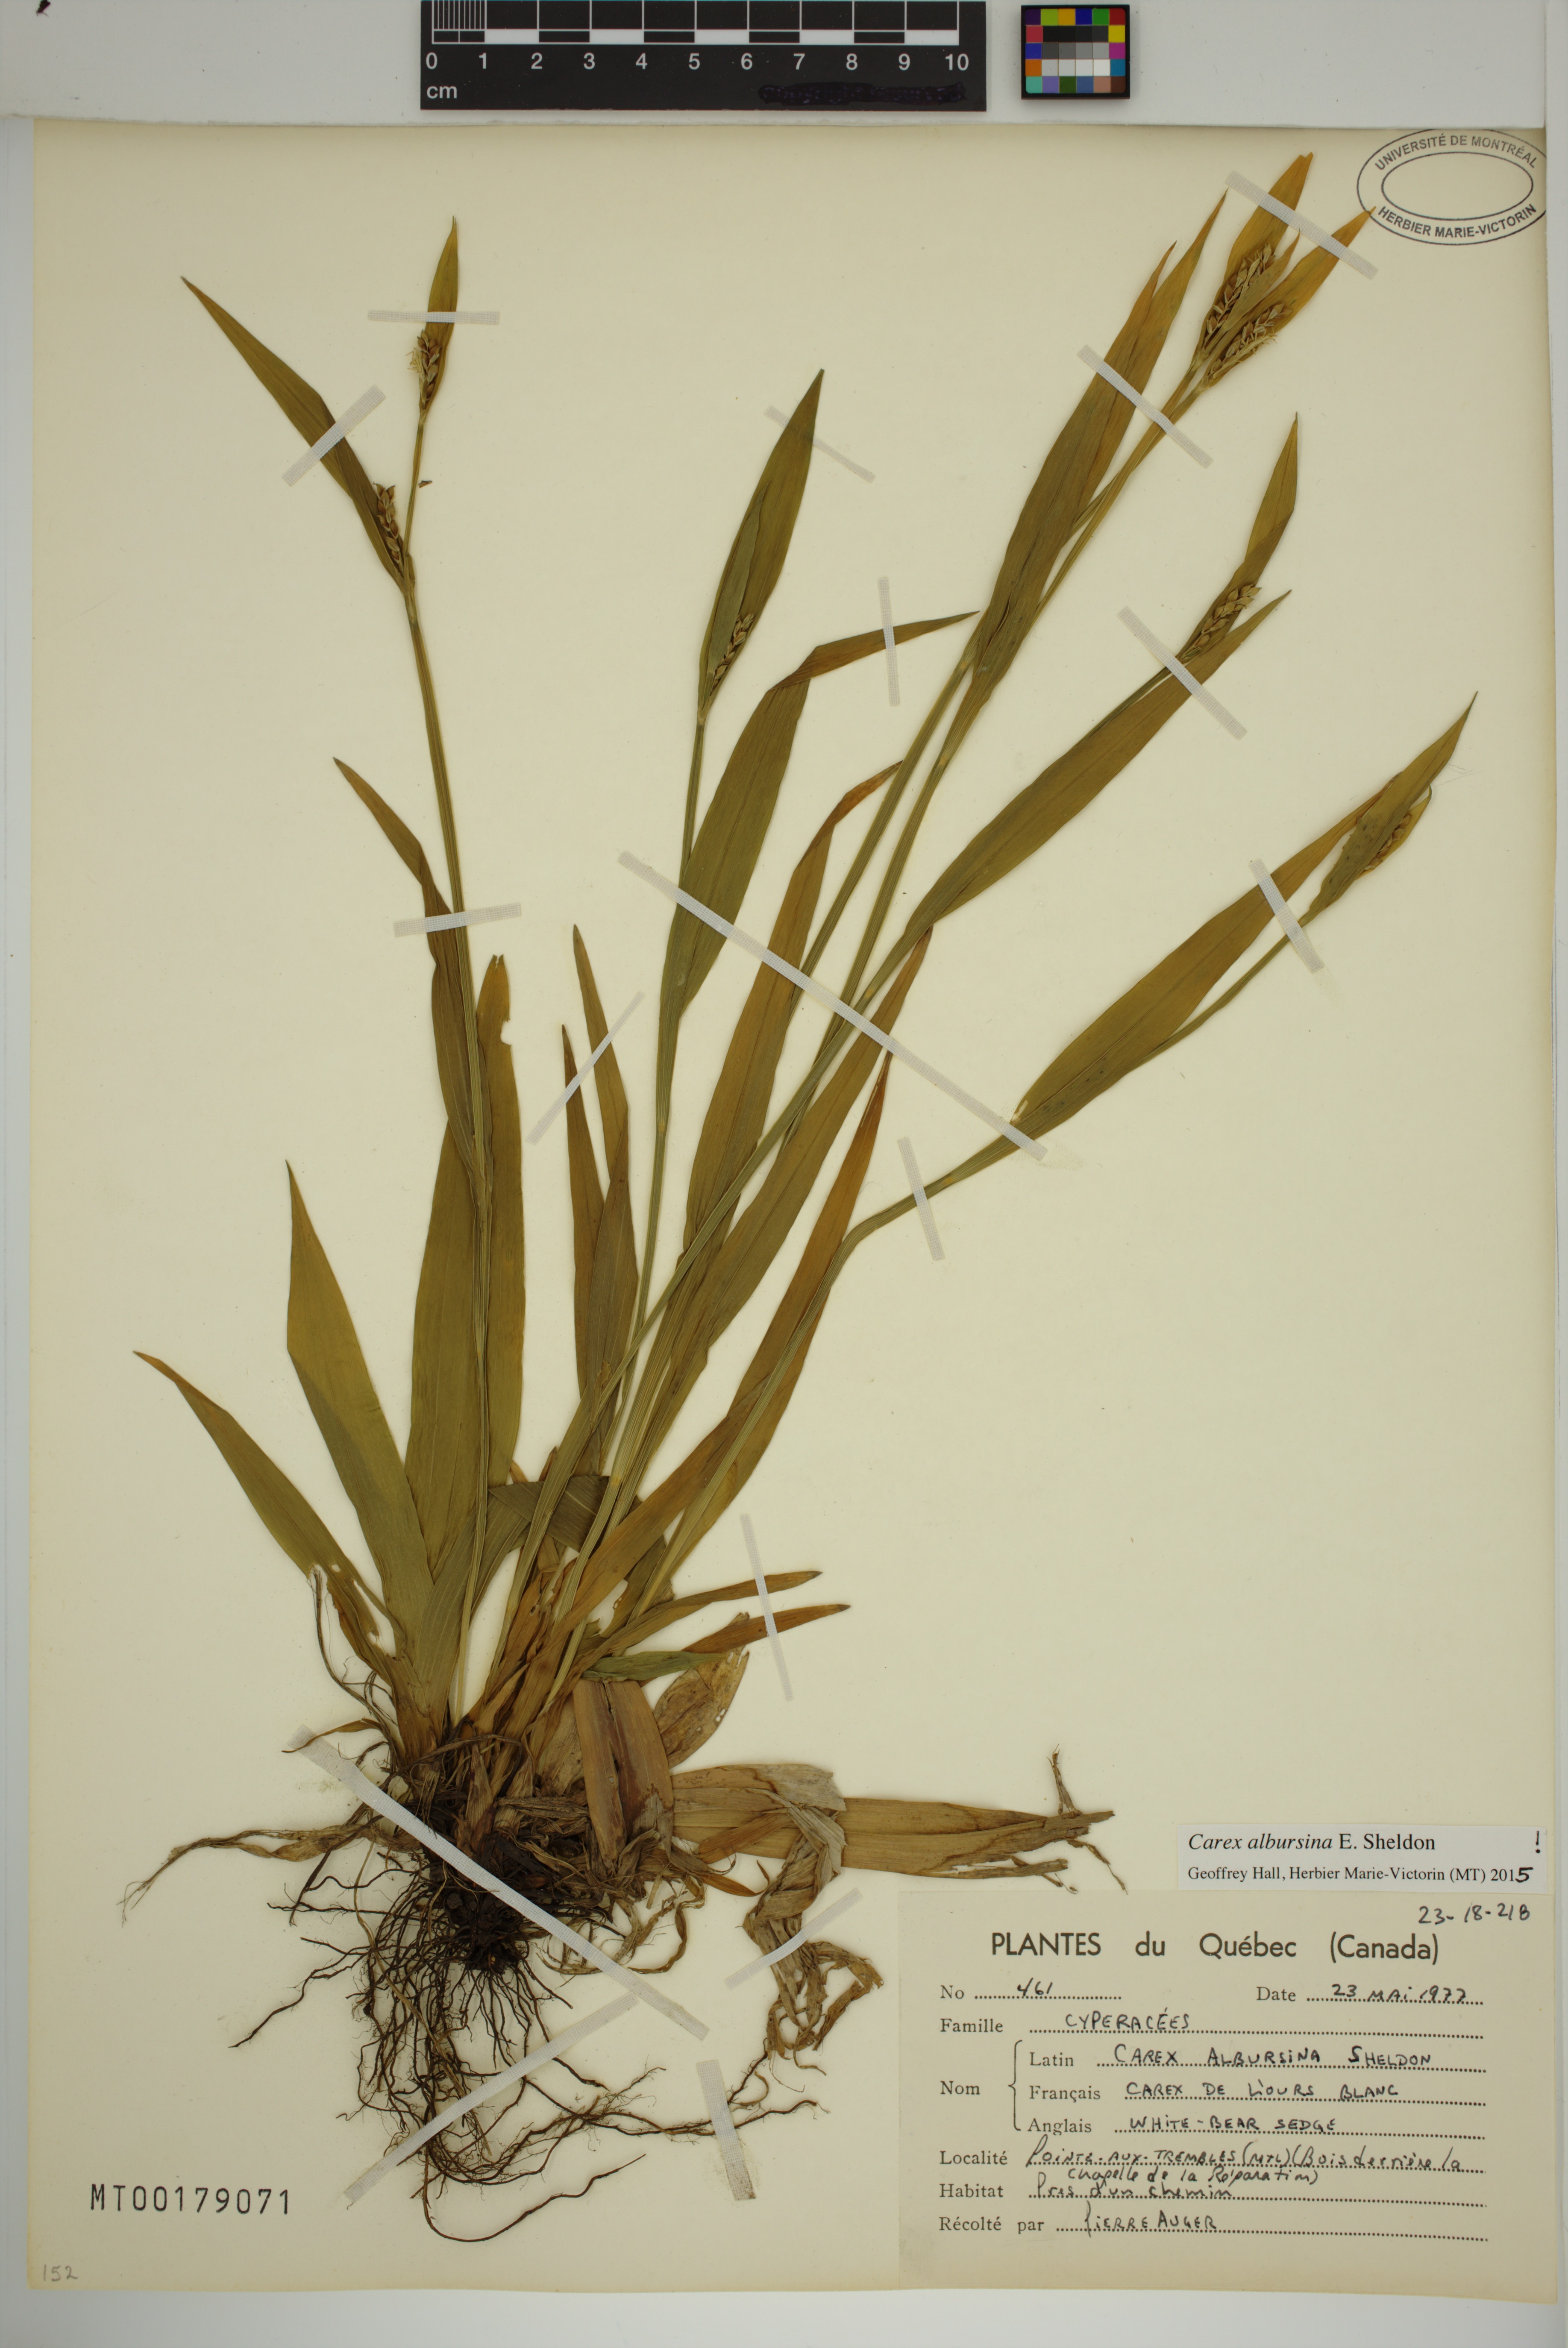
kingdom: Plantae
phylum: Tracheophyta
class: Liliopsida
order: Poales
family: Cyperaceae
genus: Carex
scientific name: Carex albursina
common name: Blunt-scale wood sedge
